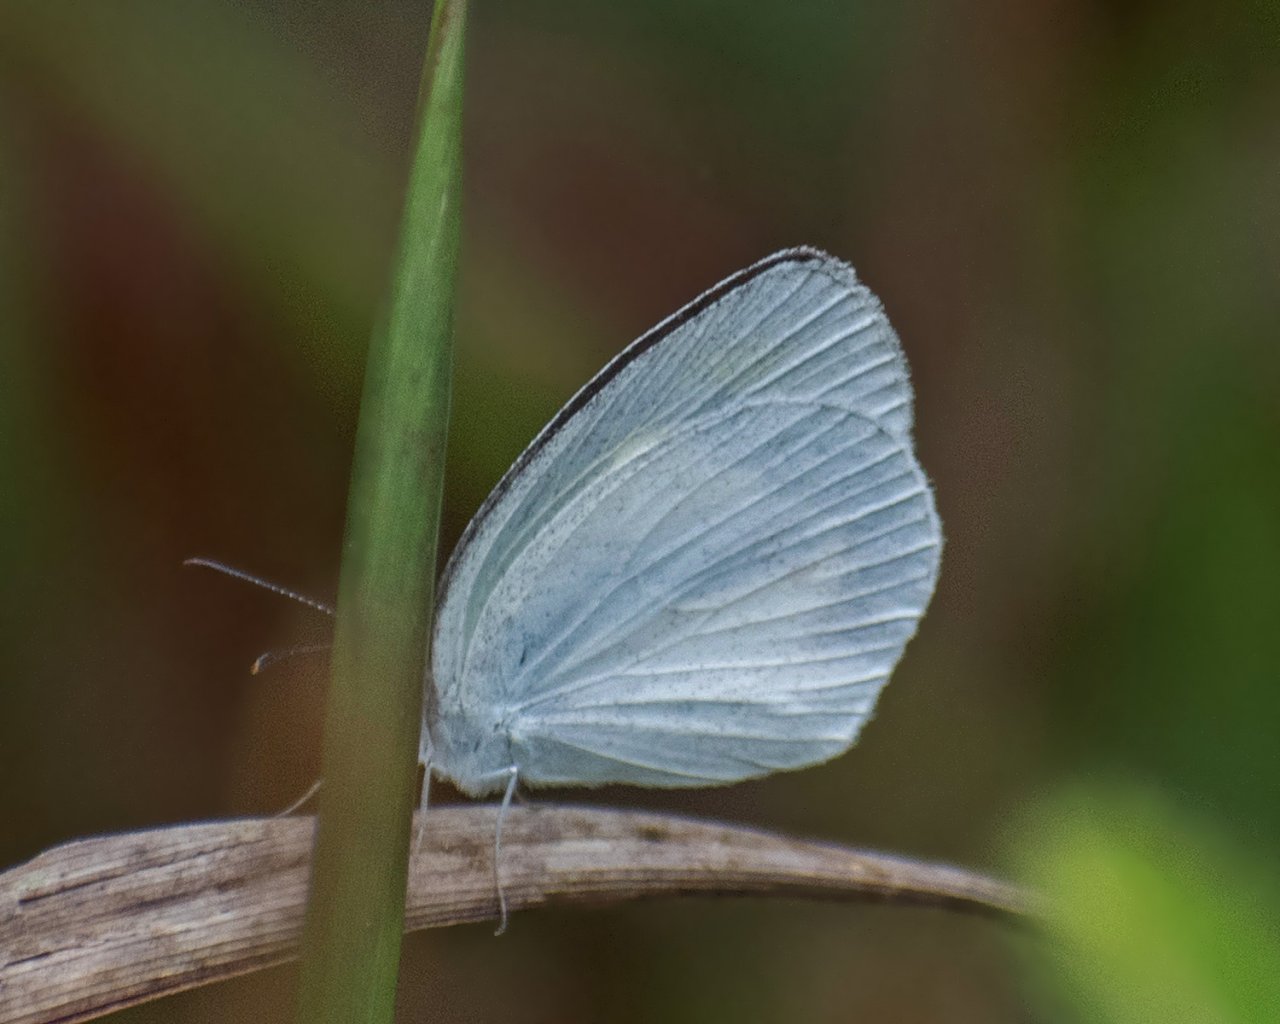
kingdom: Animalia
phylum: Arthropoda
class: Insecta
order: Lepidoptera
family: Pieridae
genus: Eurema
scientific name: Eurema daira
